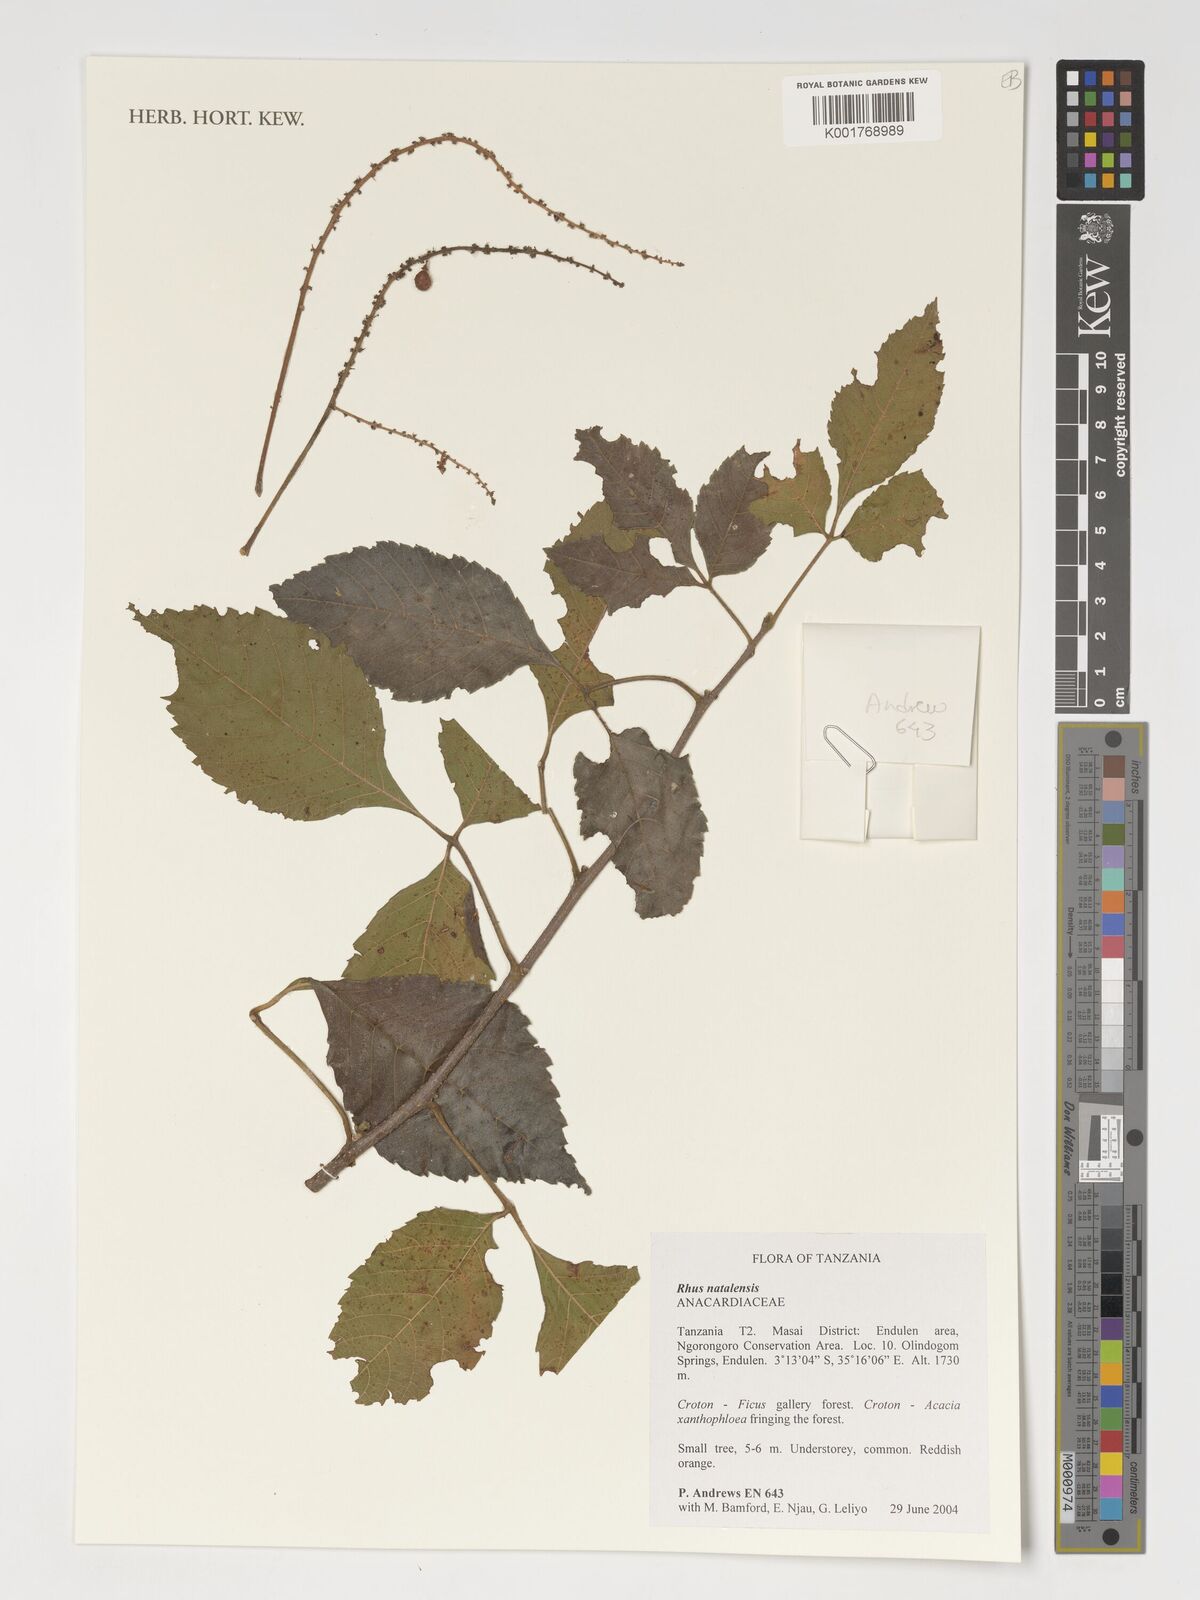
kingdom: Plantae
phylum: Tracheophyta
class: Magnoliopsida
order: Sapindales
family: Anacardiaceae
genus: Searsia
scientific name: Searsia natalensis
